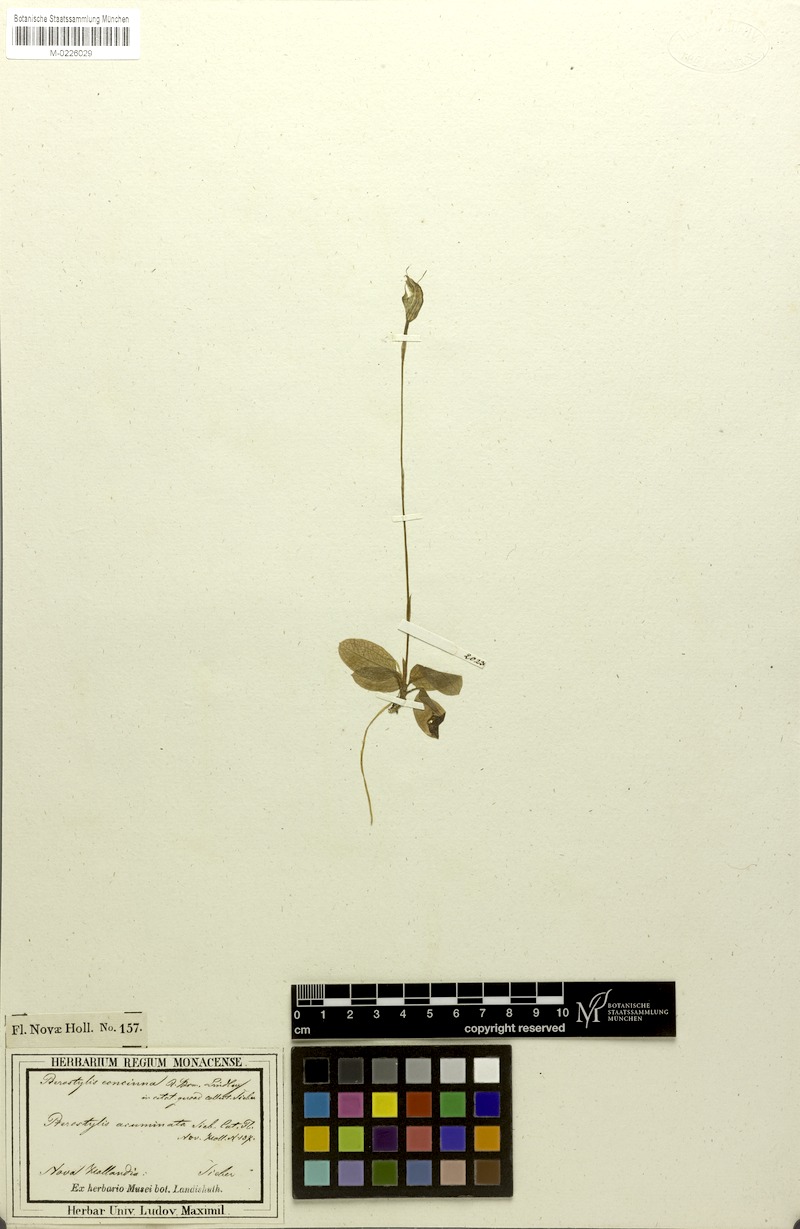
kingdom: Plantae
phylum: Tracheophyta
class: Liliopsida
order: Asparagales
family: Orchidaceae
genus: Pterostylis
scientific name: Pterostylis concinna
